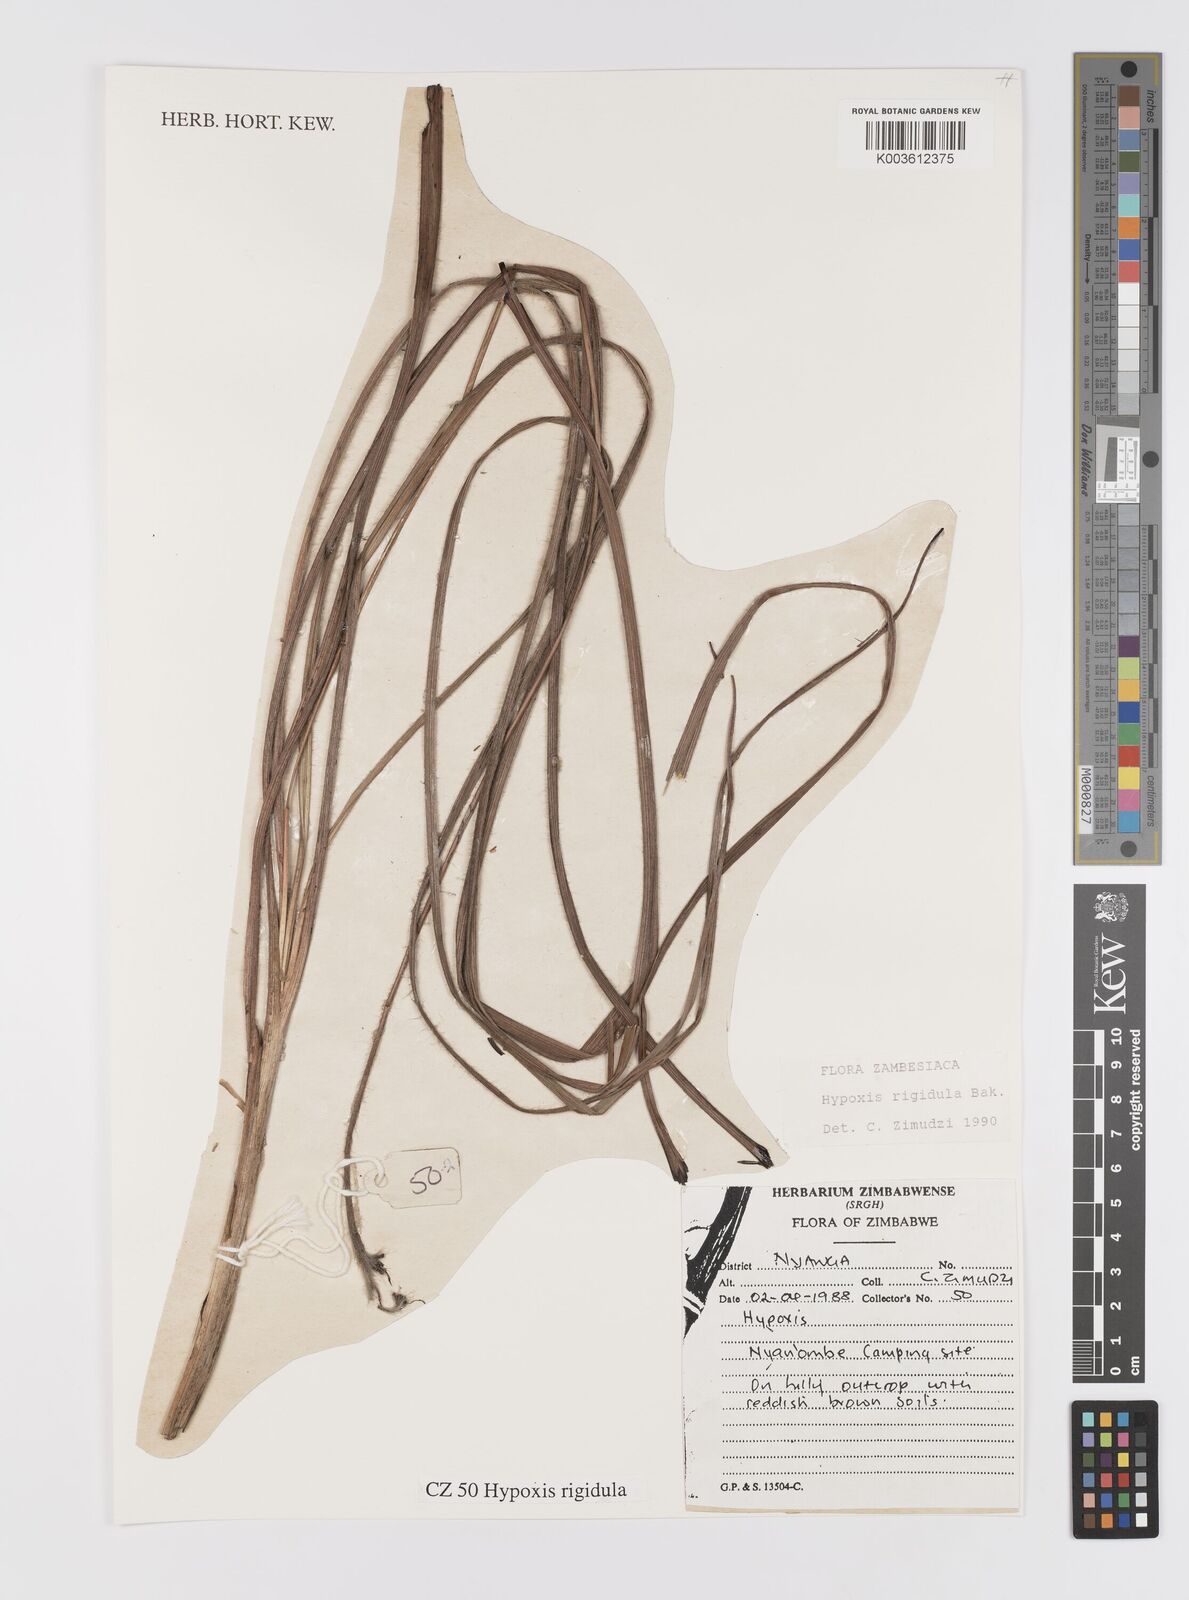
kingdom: Plantae
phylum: Tracheophyta
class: Liliopsida
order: Asparagales
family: Hypoxidaceae
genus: Hypoxis
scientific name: Hypoxis rigidula
